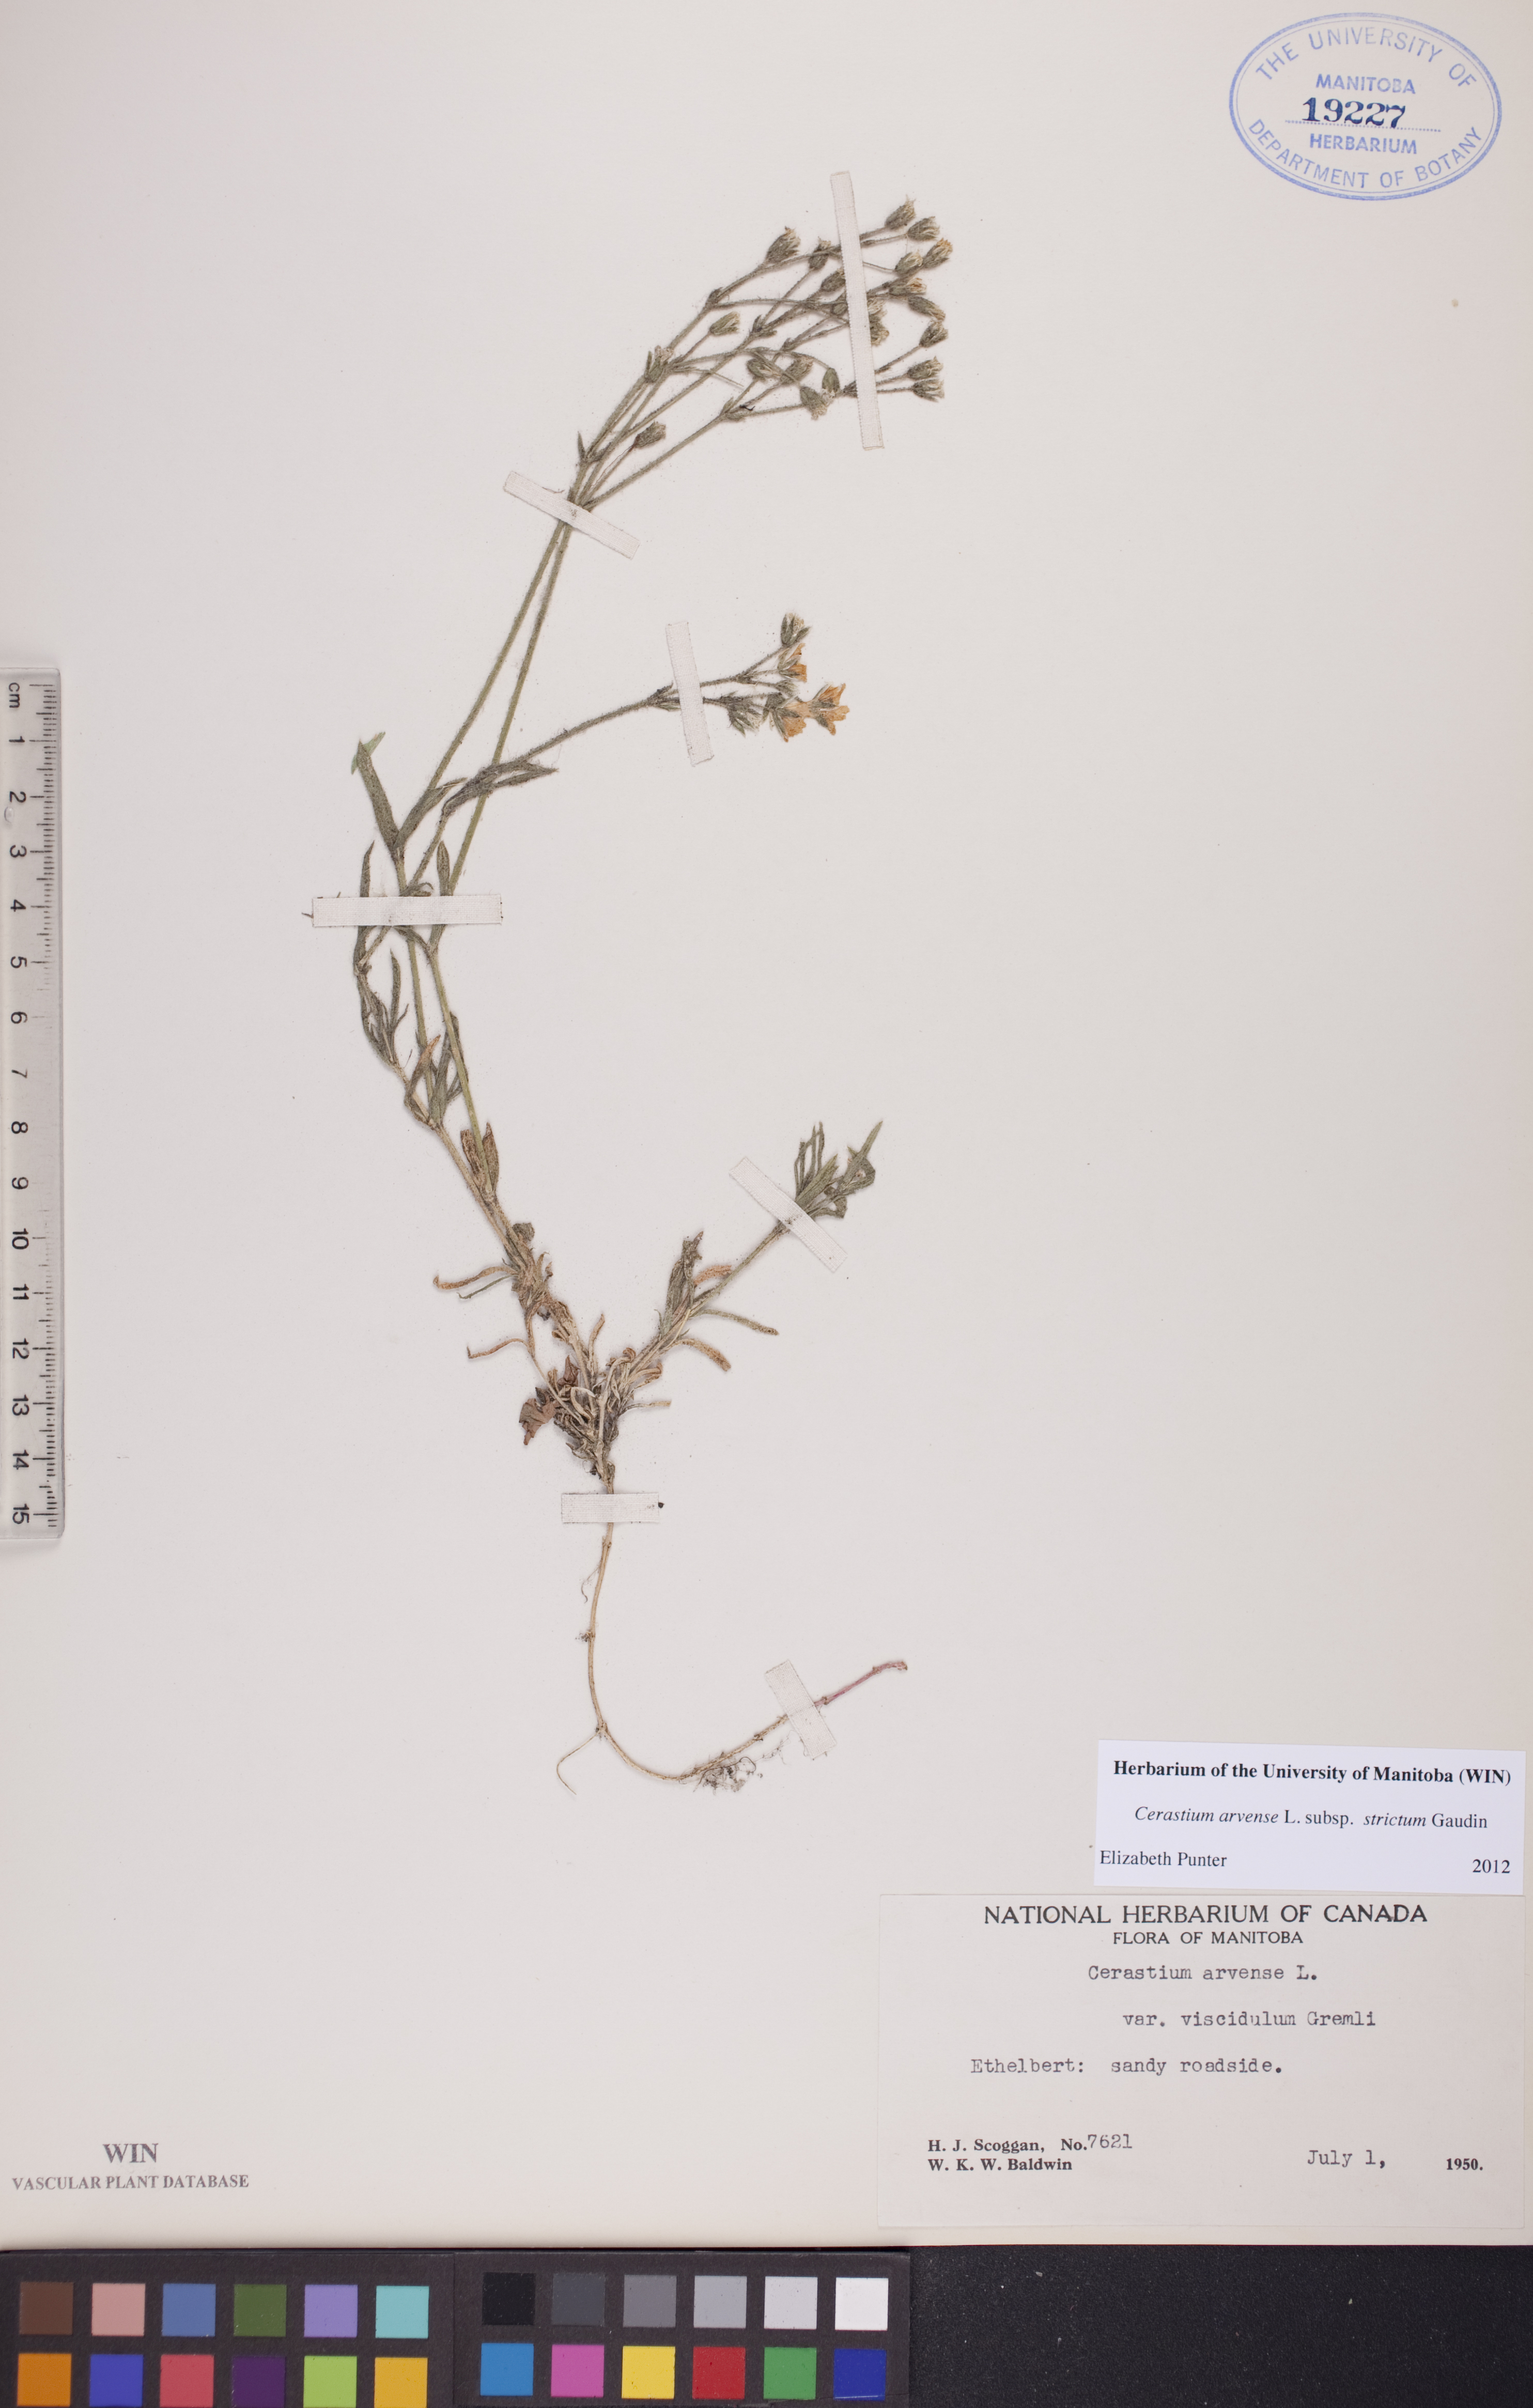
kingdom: Plantae
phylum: Tracheophyta
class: Magnoliopsida
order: Caryophyllales
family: Caryophyllaceae
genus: Cerastium
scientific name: Cerastium elongatum
